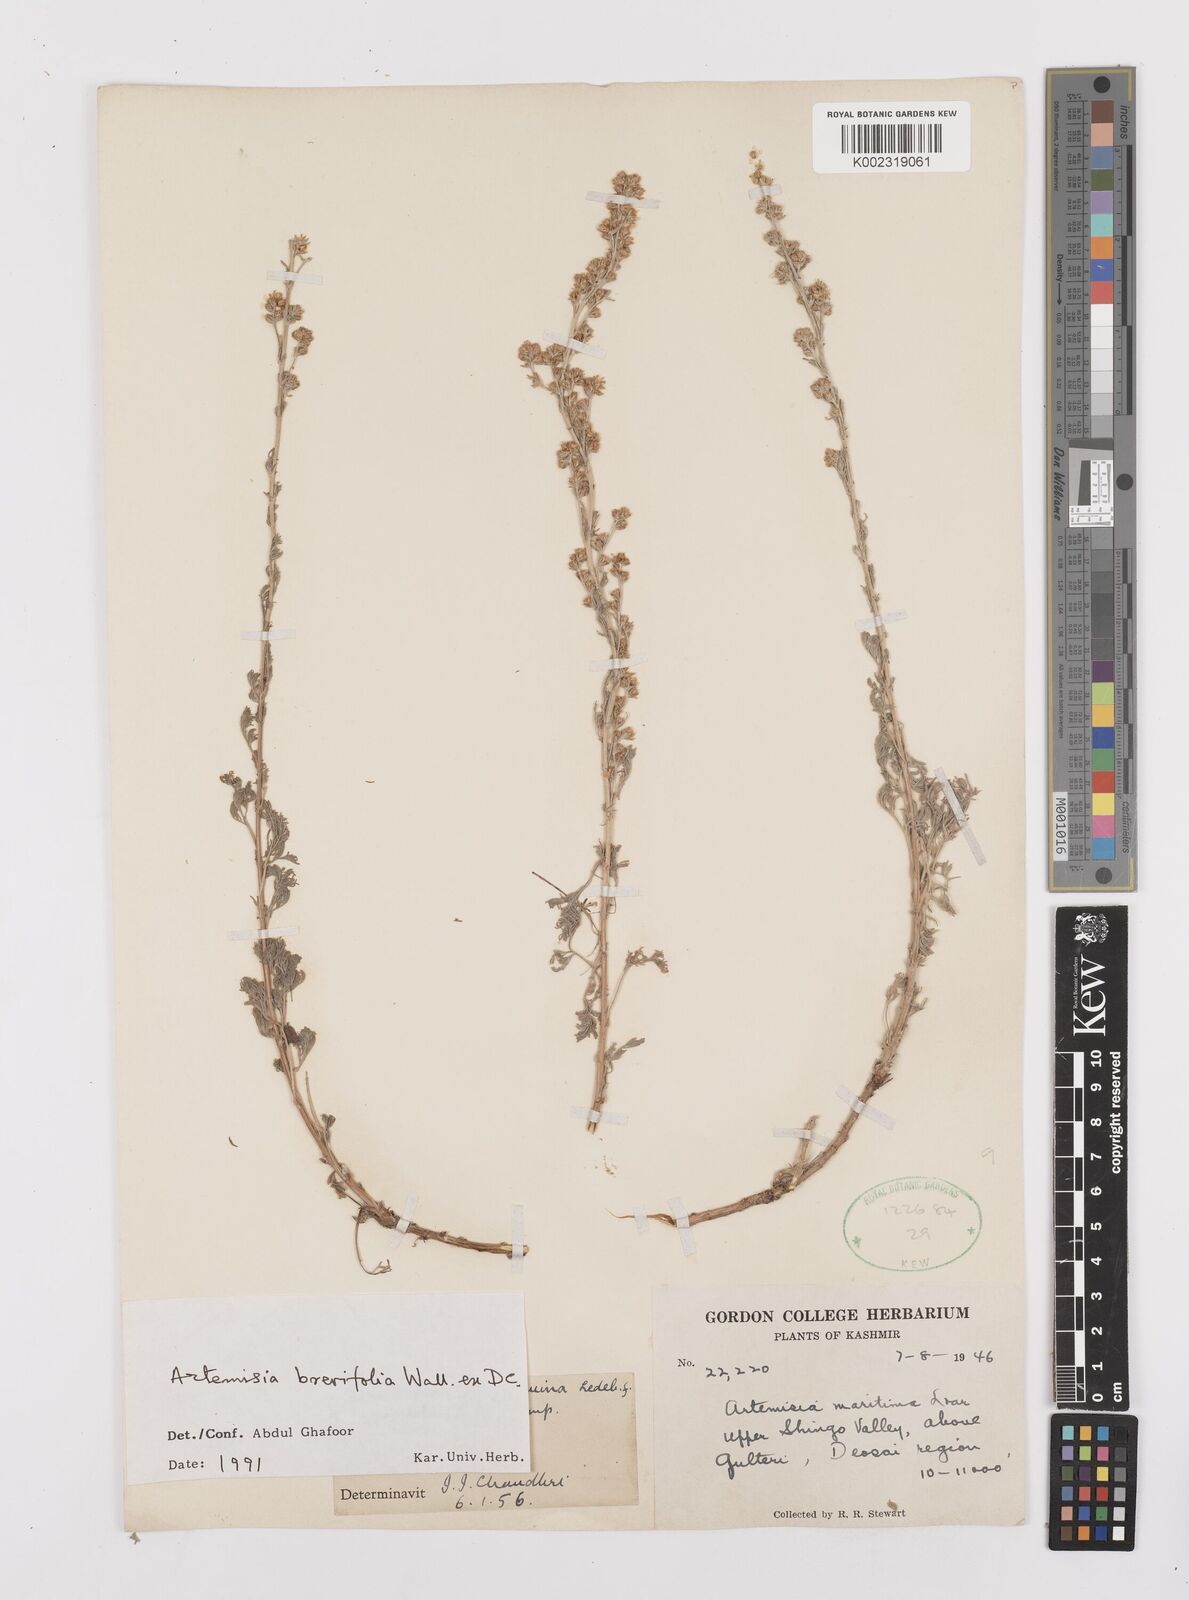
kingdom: Plantae
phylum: Tracheophyta
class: Magnoliopsida
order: Asterales
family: Asteraceae
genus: Artemisia
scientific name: Artemisia brevifolia
